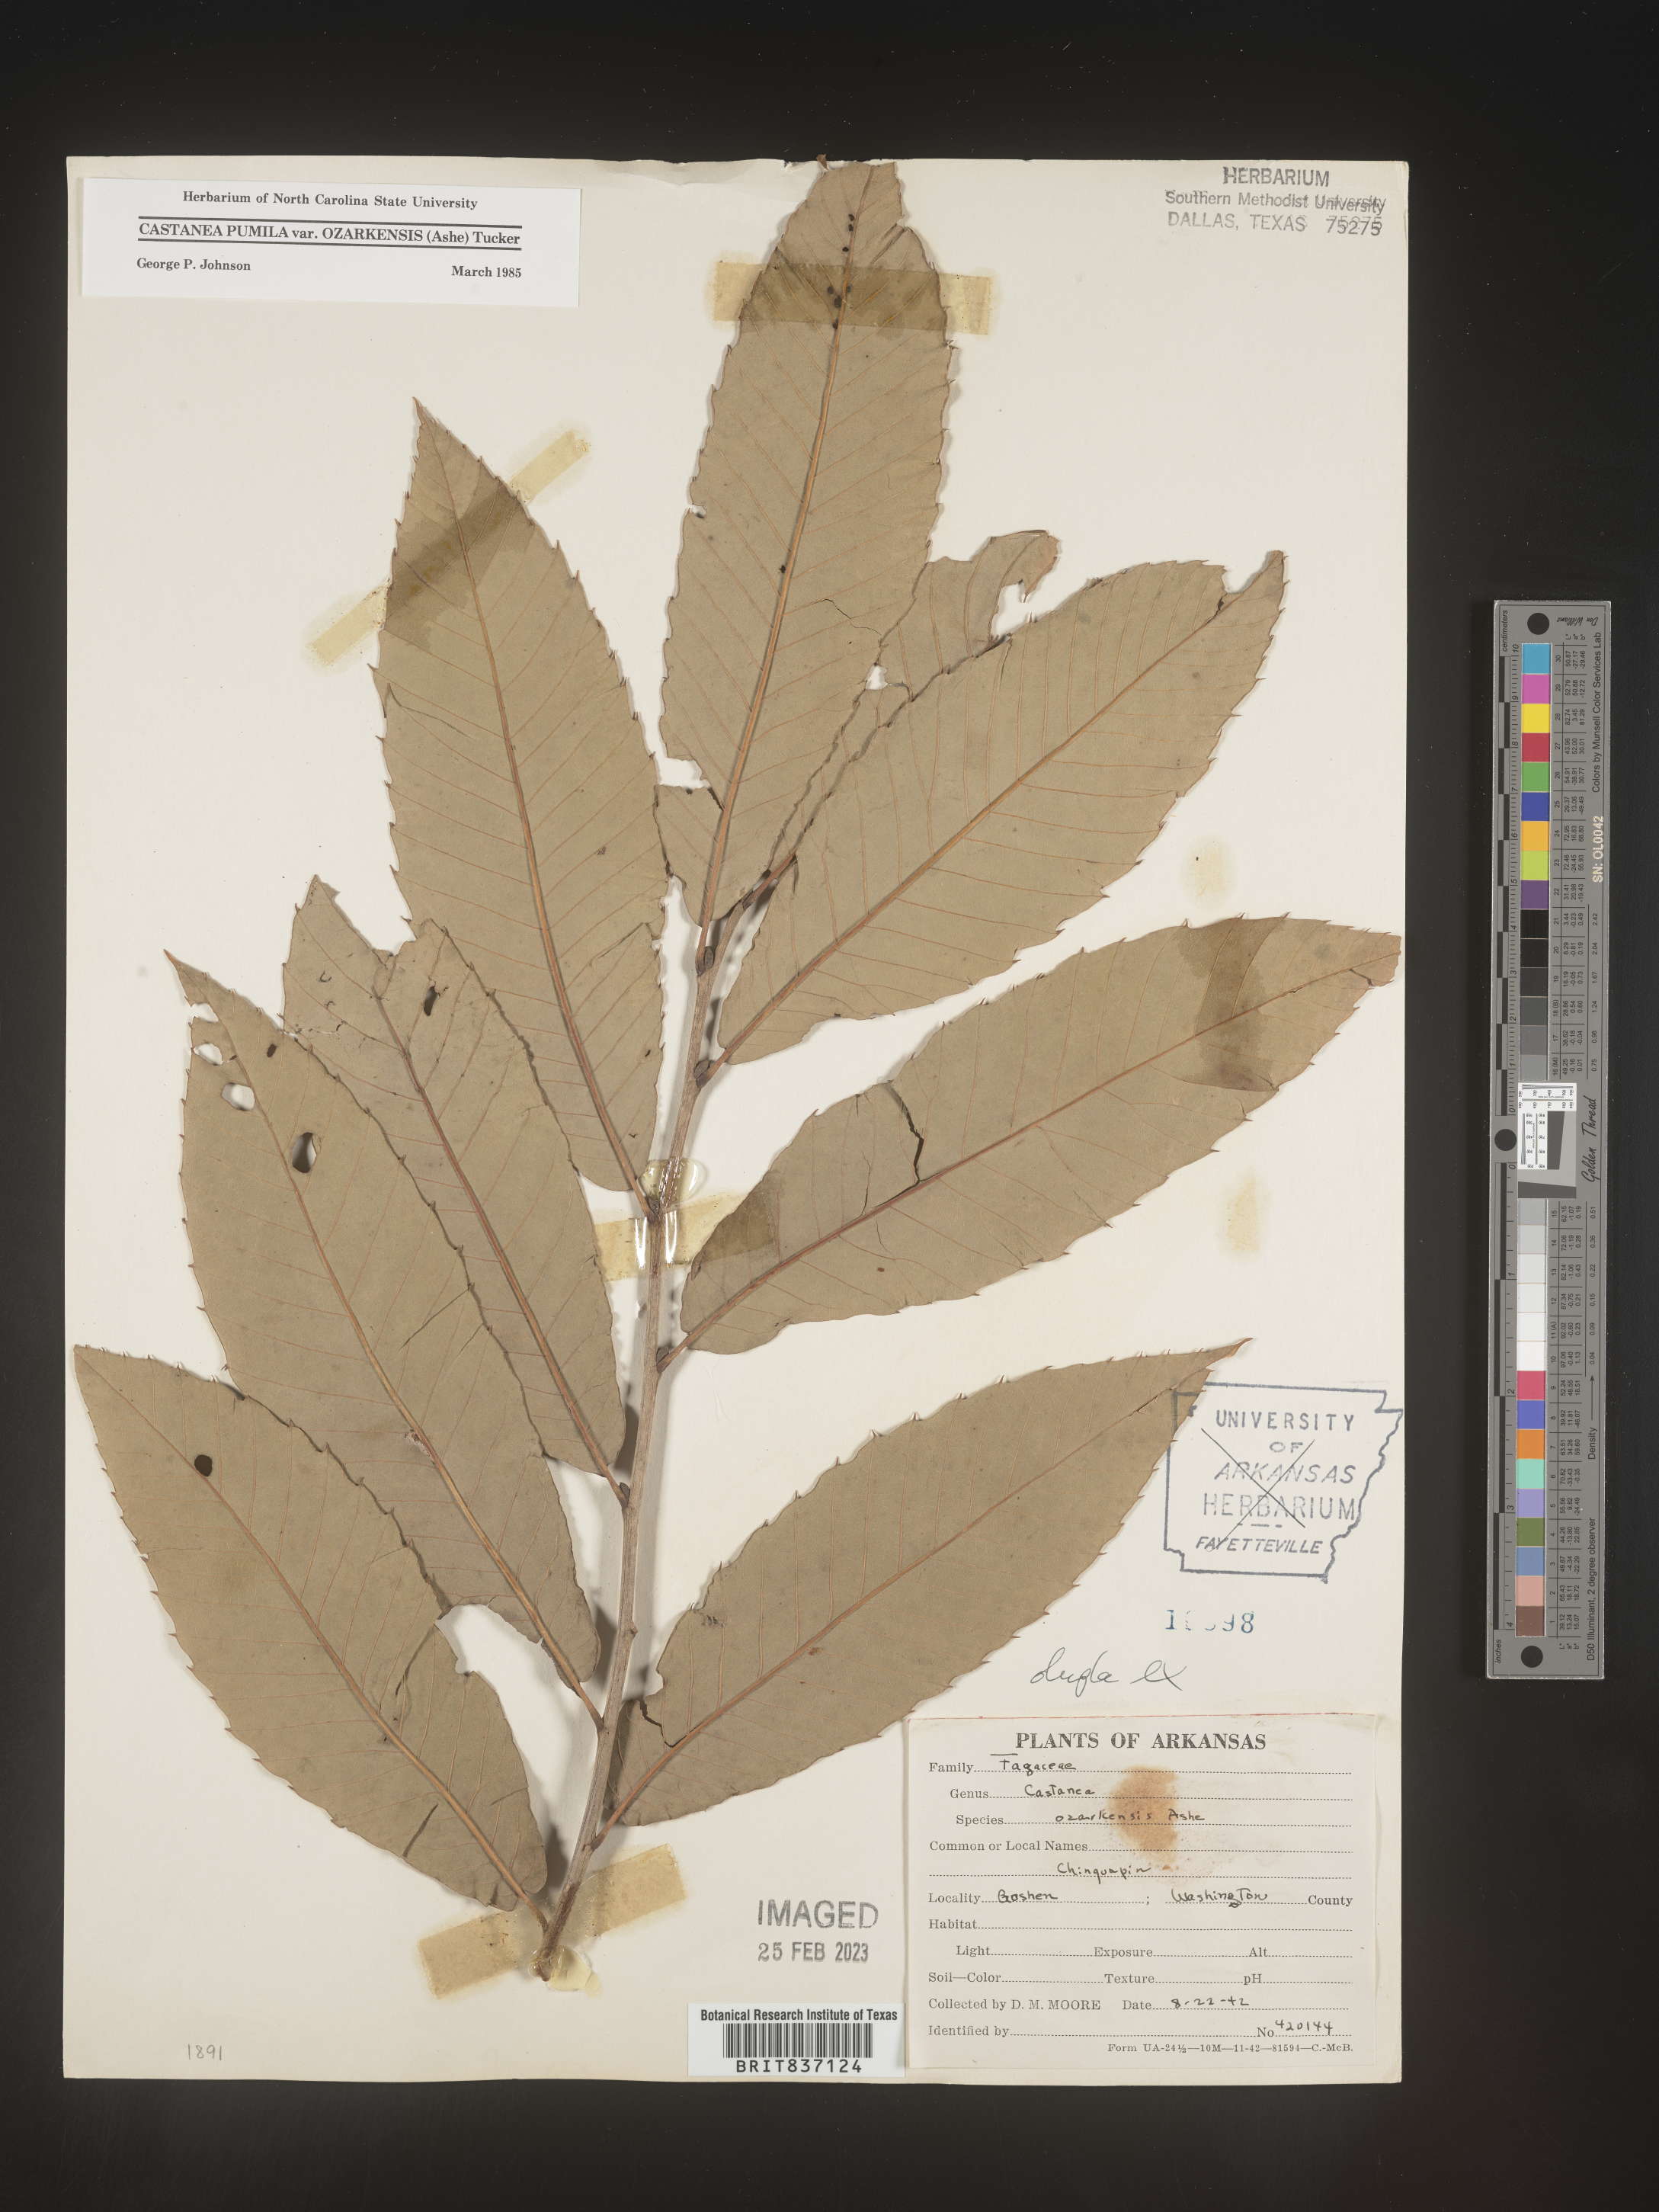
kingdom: Plantae
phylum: Tracheophyta
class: Magnoliopsida
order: Fagales
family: Fagaceae
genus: Castanea
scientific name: Castanea pumila
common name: Chinkapin
